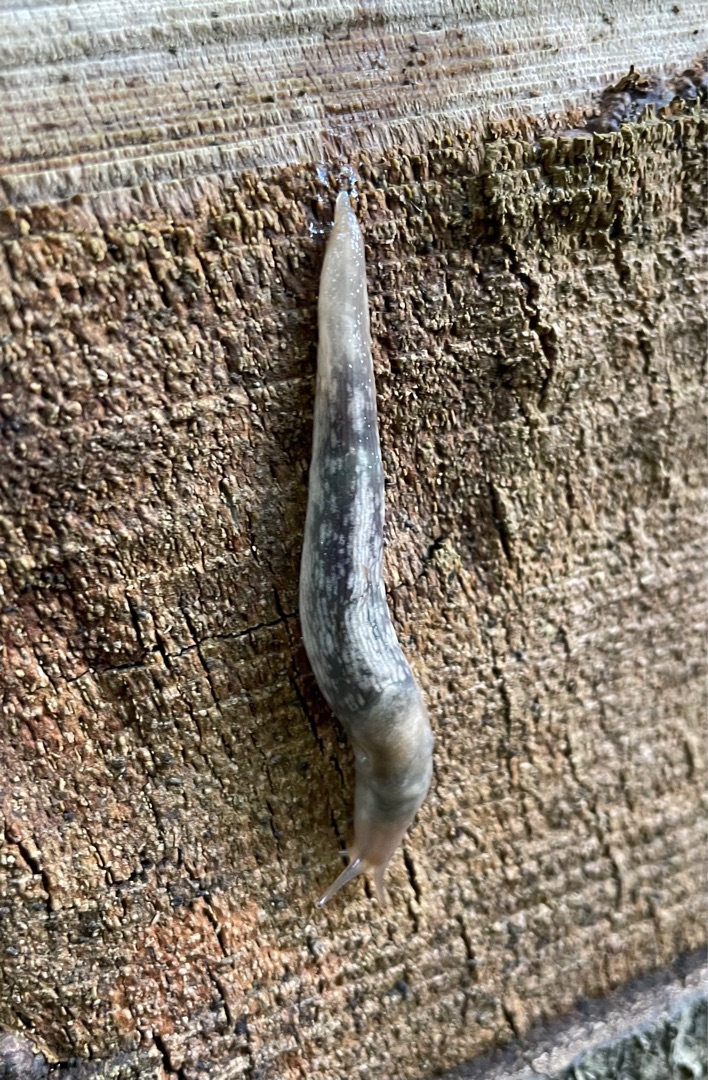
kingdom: Animalia
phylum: Mollusca
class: Gastropoda
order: Stylommatophora
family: Limacidae
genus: Lehmannia
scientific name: Lehmannia marginata
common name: Bøgesnegl
